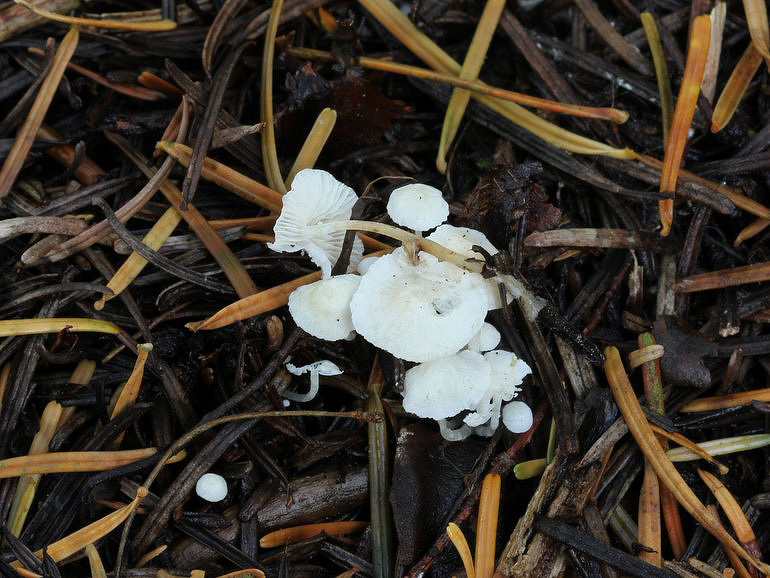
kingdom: Fungi
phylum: Basidiomycota
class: Agaricomycetes
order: Agaricales
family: Mycenaceae
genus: Hemimycena
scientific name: Hemimycena lactea
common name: mælkehvid huesvamp
